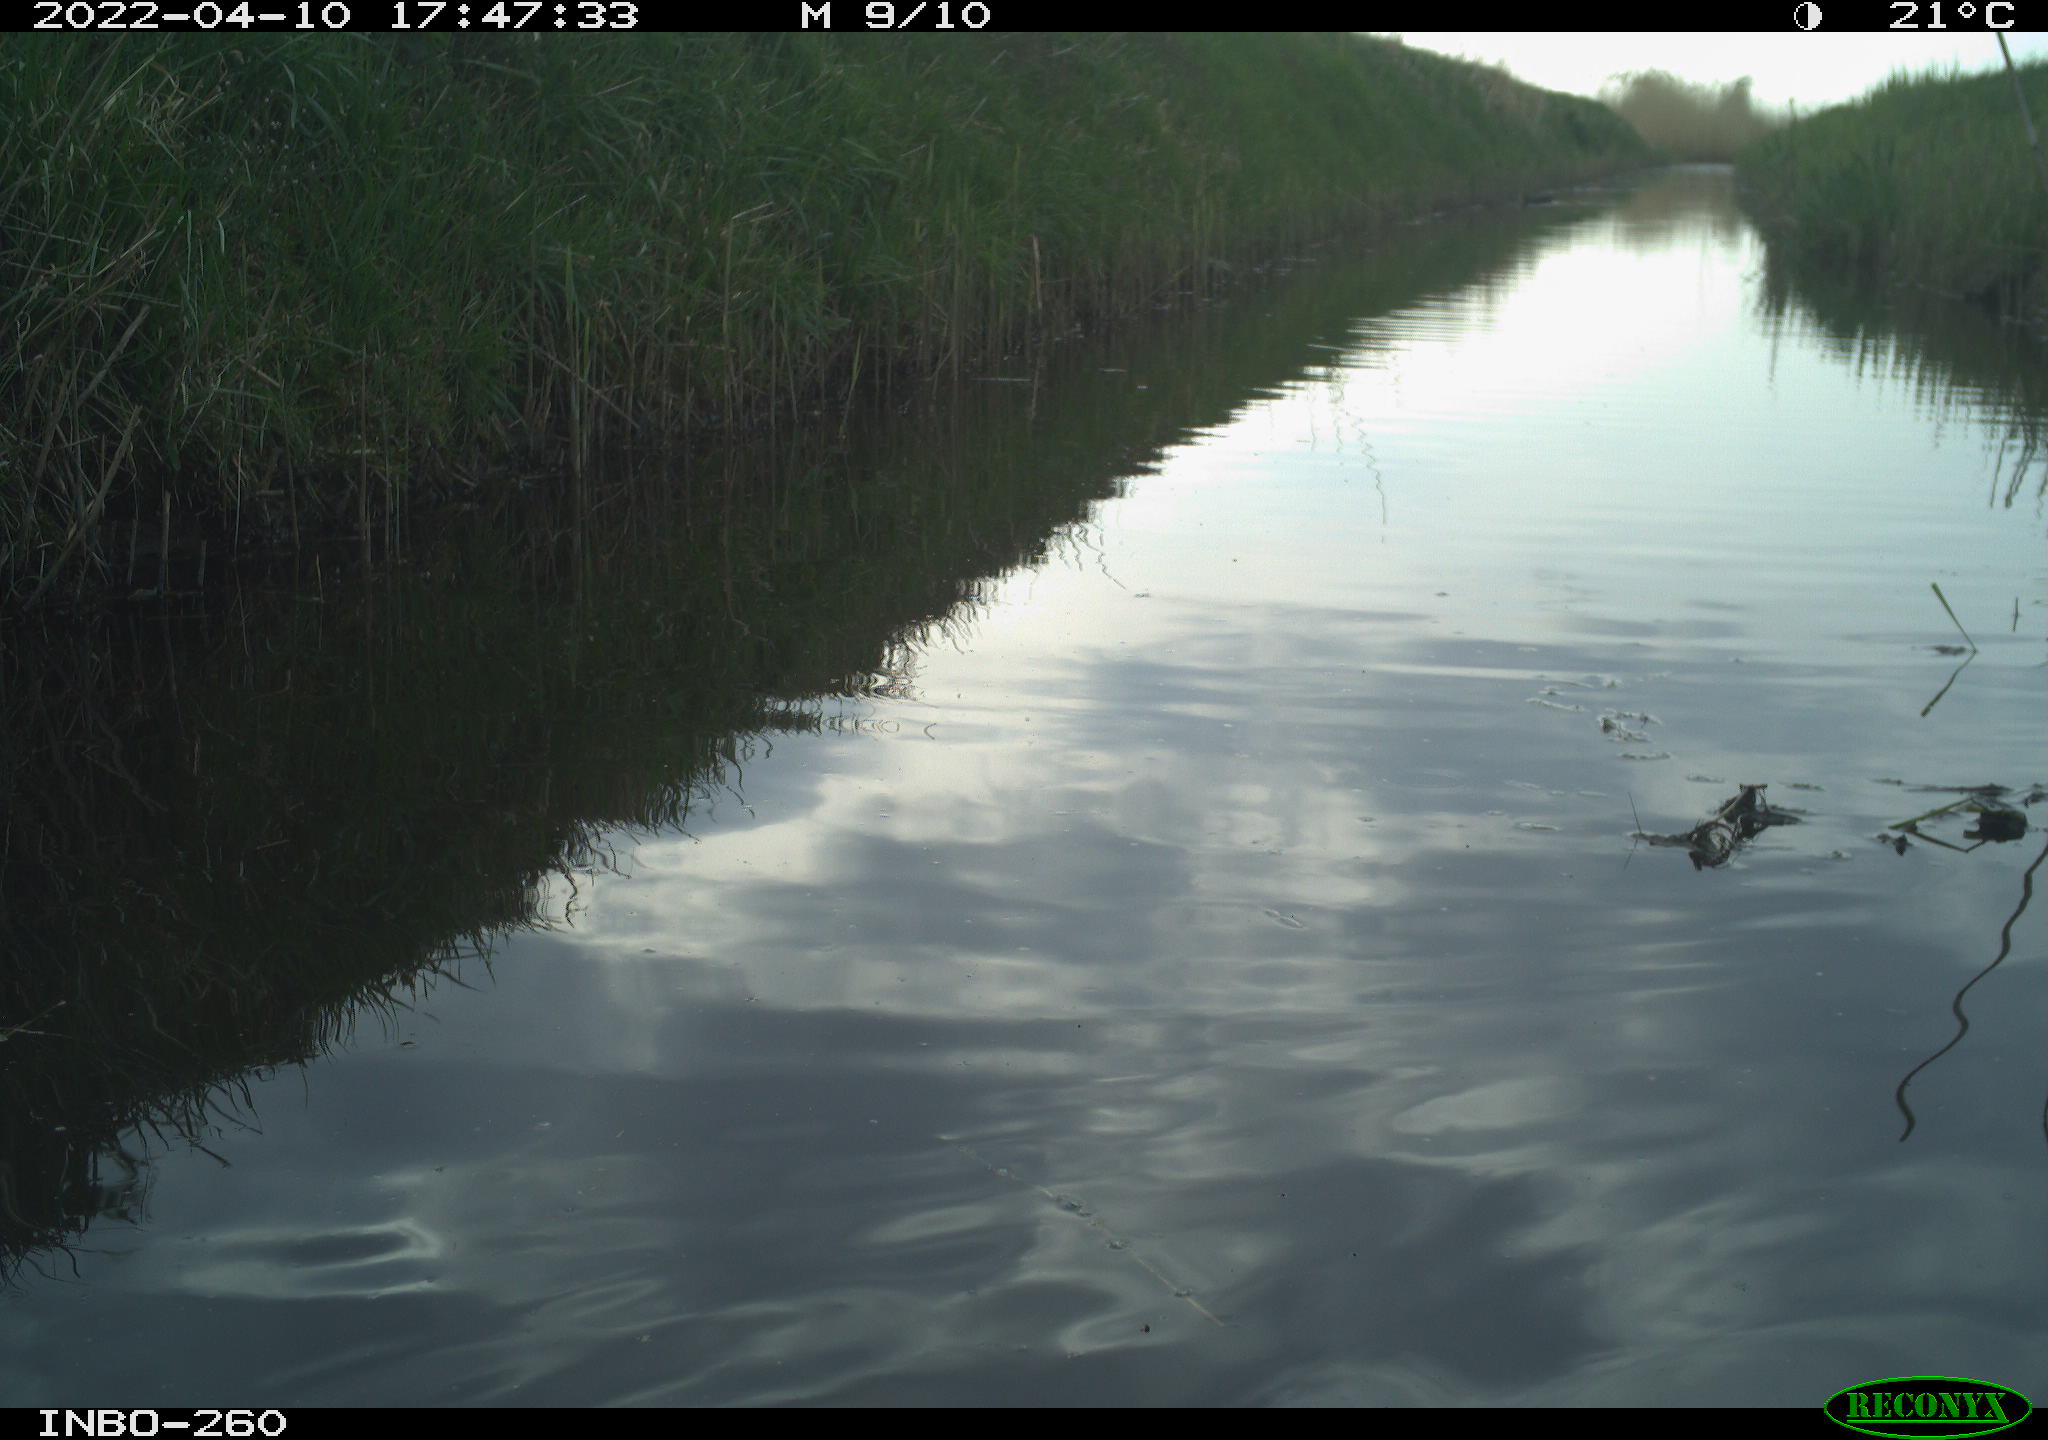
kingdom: Animalia
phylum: Chordata
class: Aves
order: Gruiformes
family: Rallidae
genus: Fulica
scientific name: Fulica atra
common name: Eurasian coot
